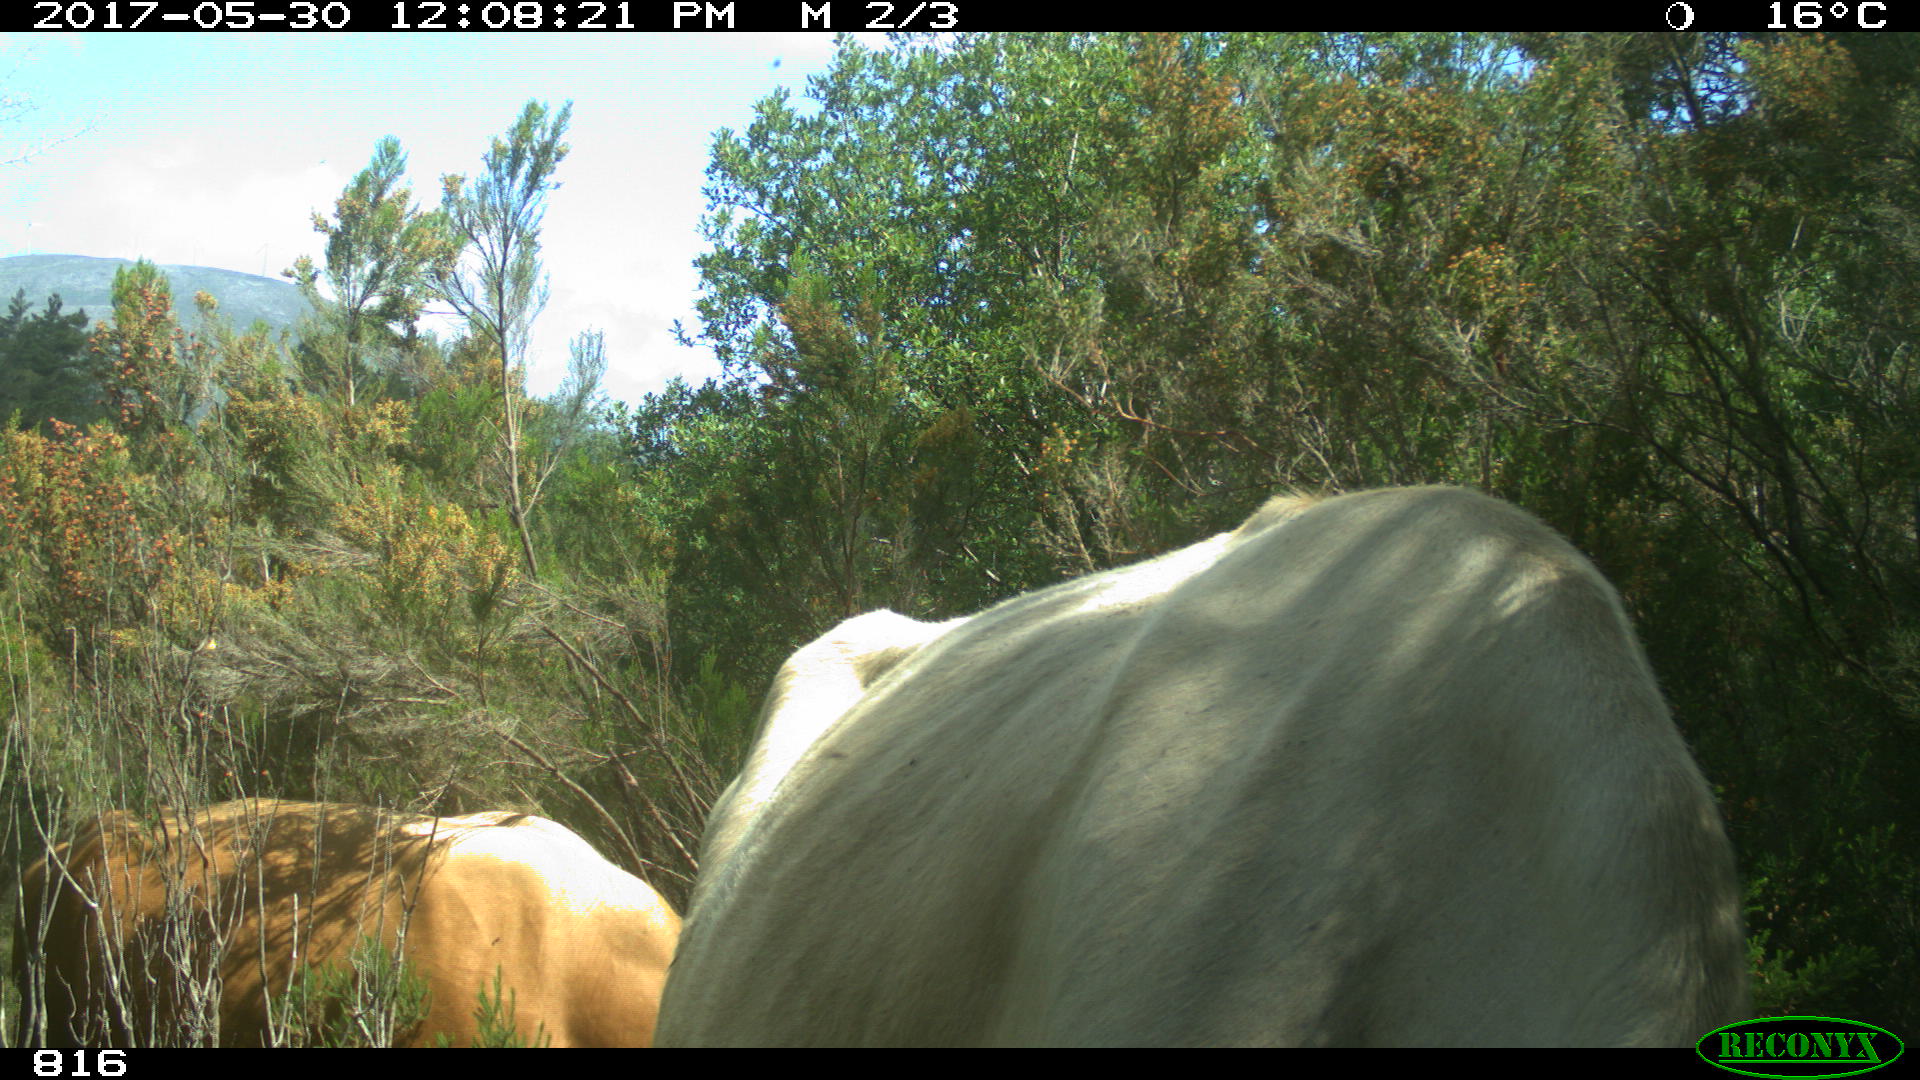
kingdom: Animalia
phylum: Chordata
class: Mammalia
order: Artiodactyla
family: Bovidae
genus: Bos
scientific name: Bos taurus
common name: Domesticated cattle
